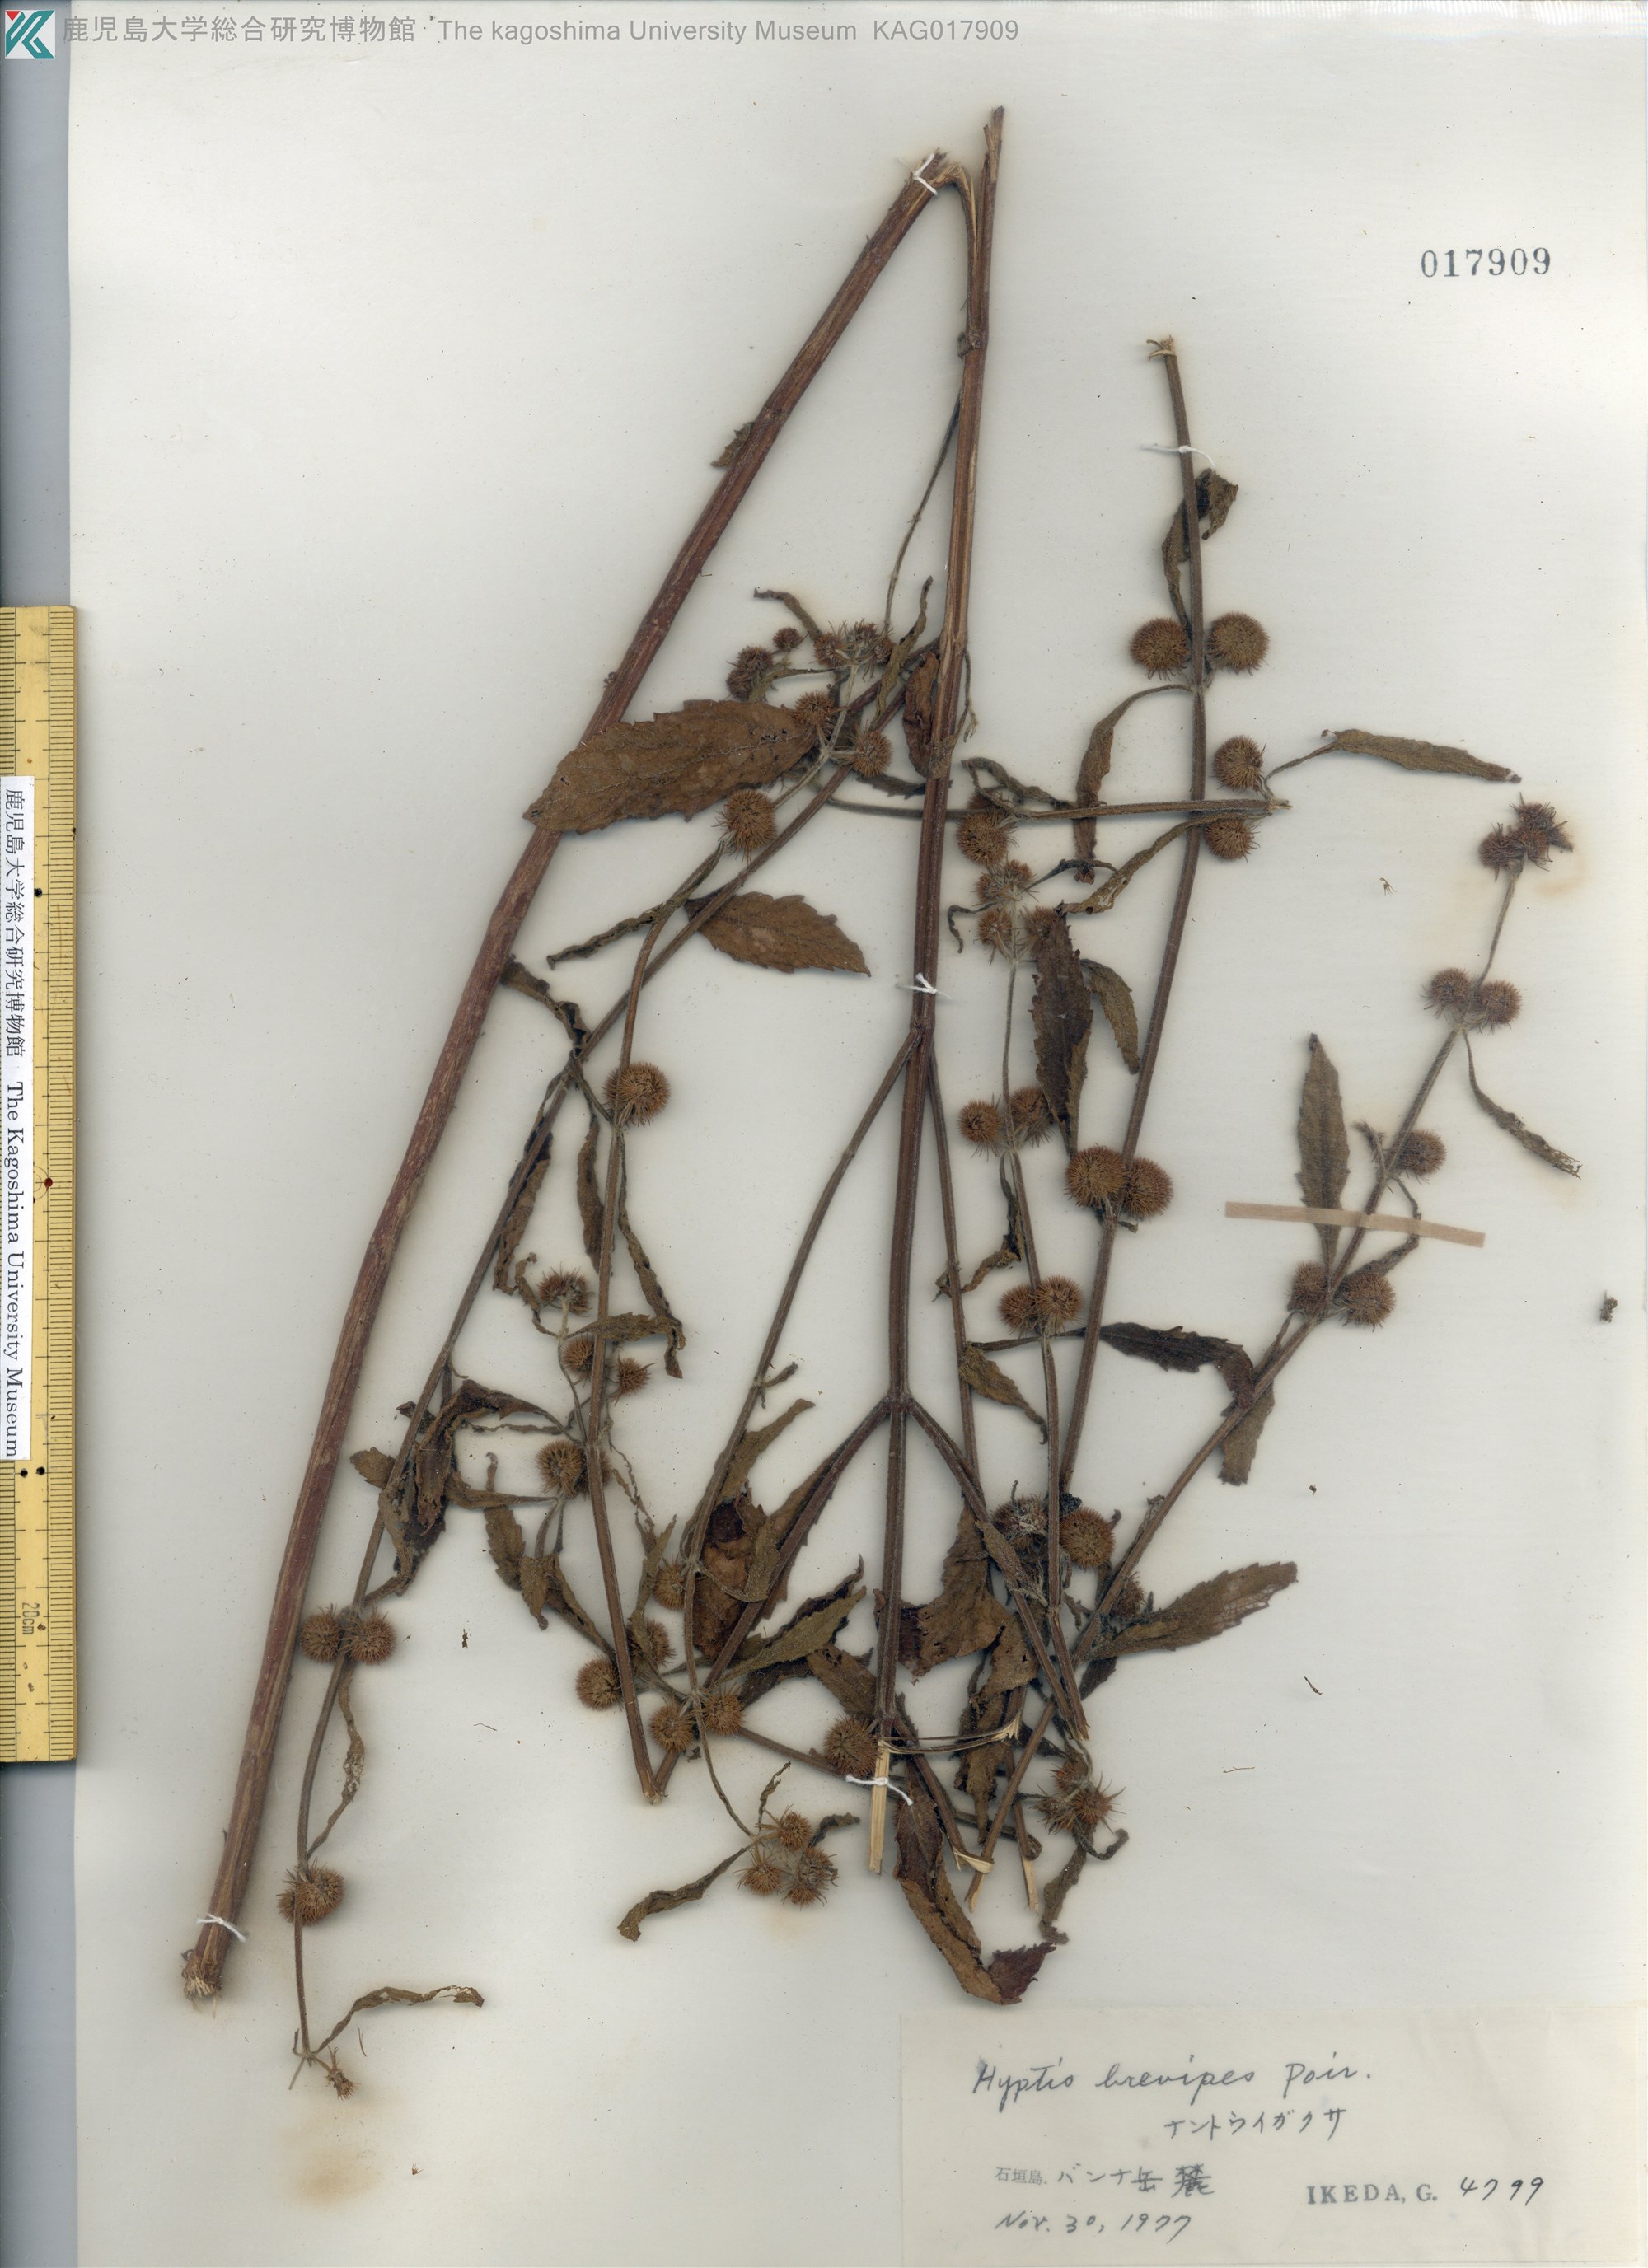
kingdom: Plantae
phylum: Tracheophyta
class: Magnoliopsida
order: Lamiales
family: Lamiaceae
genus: Hyptis
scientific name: Hyptis brevipes
